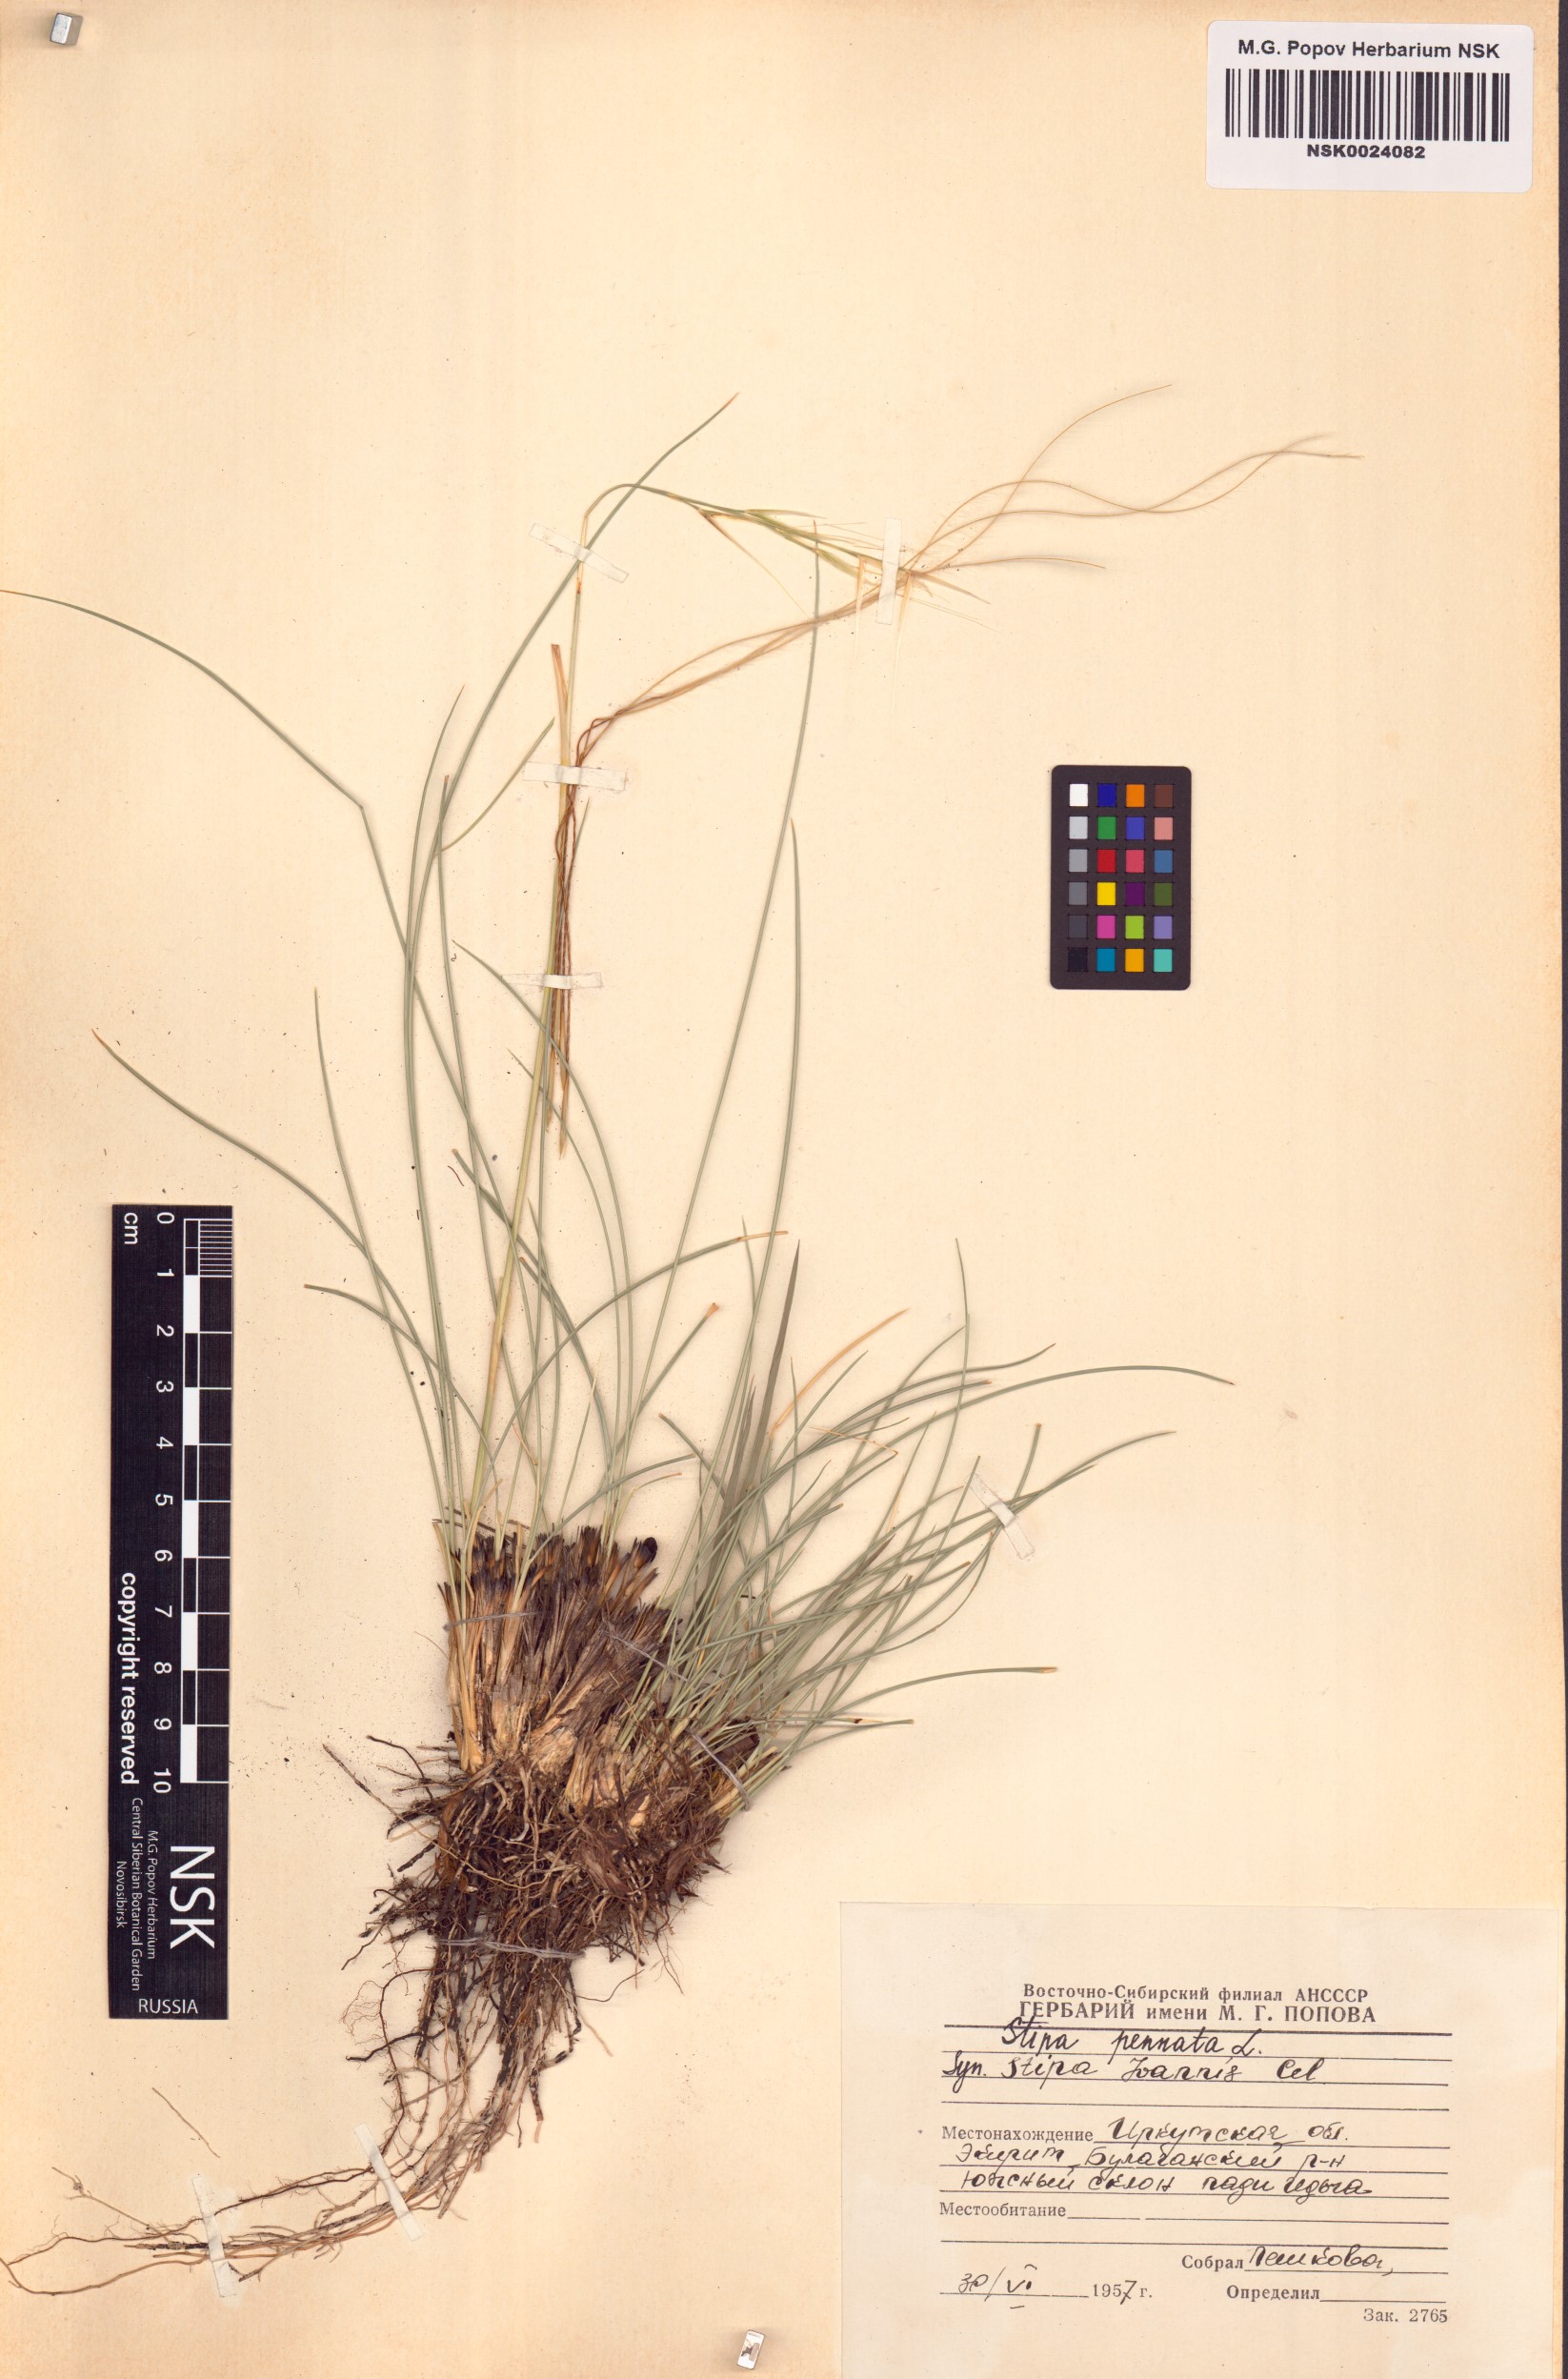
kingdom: Plantae
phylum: Tracheophyta
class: Liliopsida
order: Poales
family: Poaceae
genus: Stipa
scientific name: Stipa pennata
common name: European feather grass
